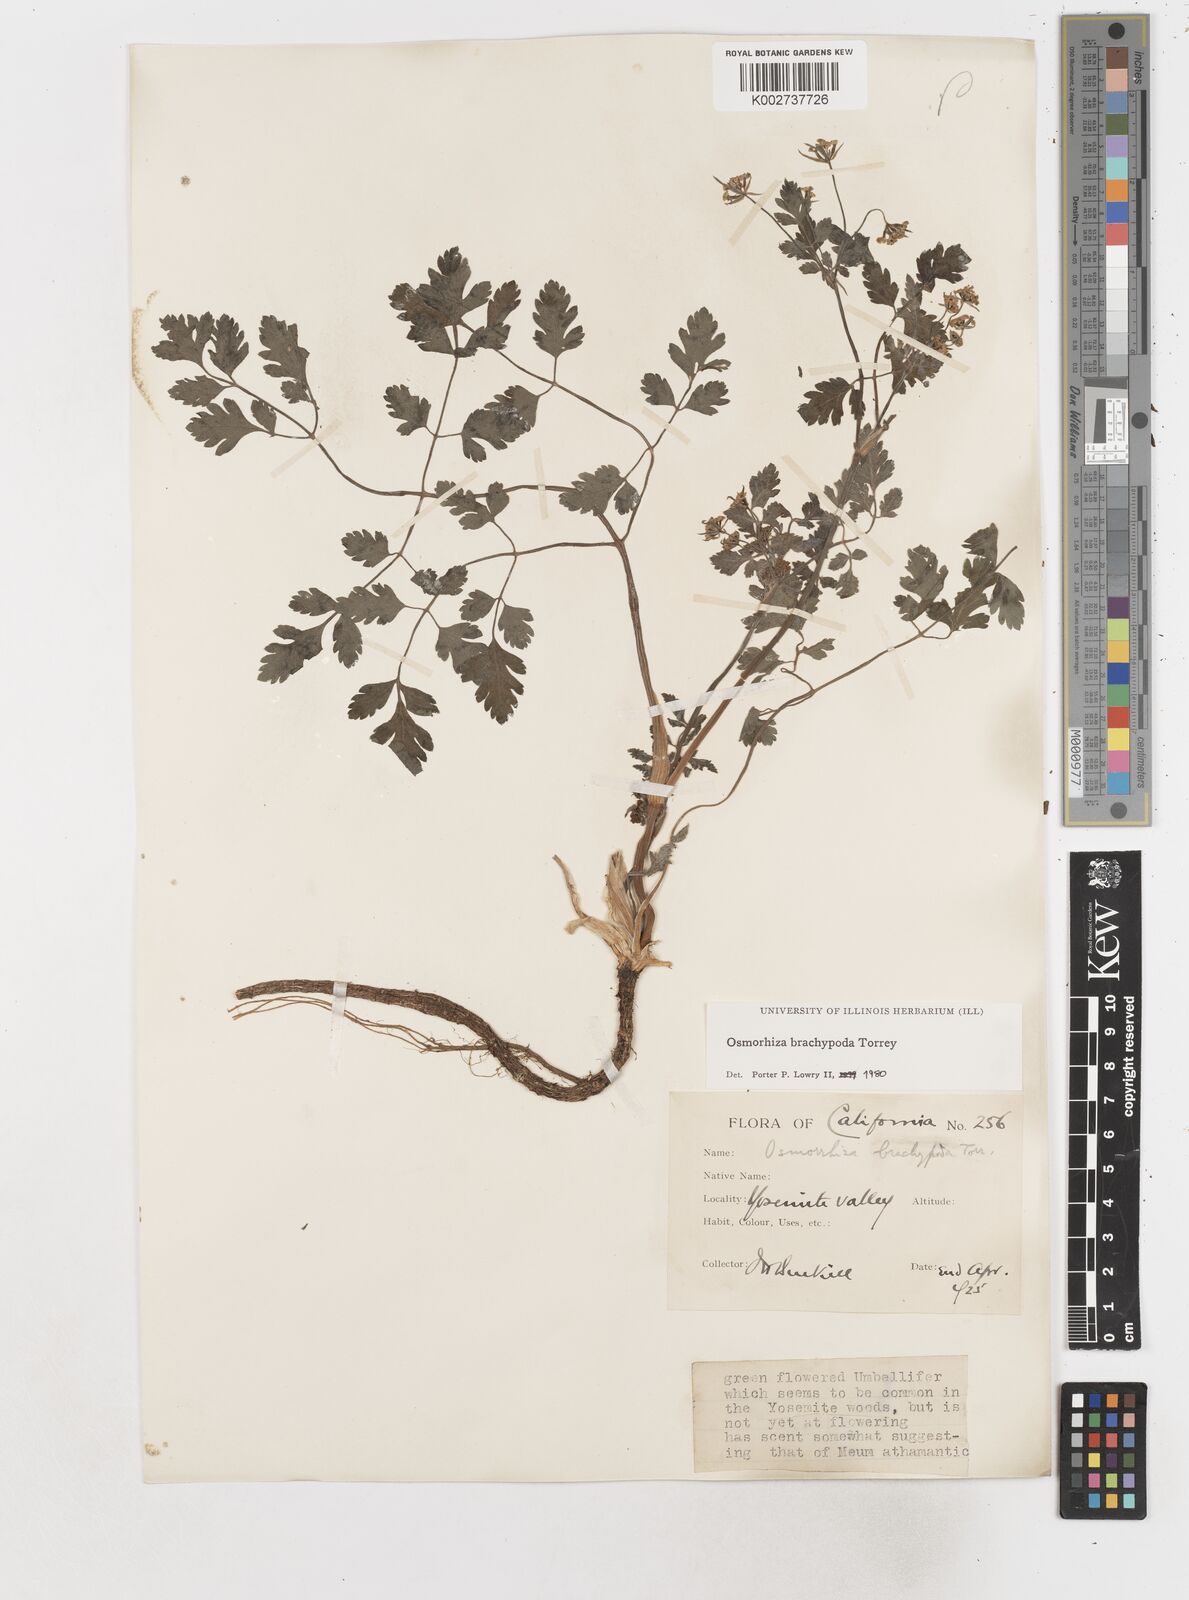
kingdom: Plantae
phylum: Tracheophyta
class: Magnoliopsida
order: Apiales
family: Apiaceae
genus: Osmorhiza
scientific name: Osmorhiza brachypoda
